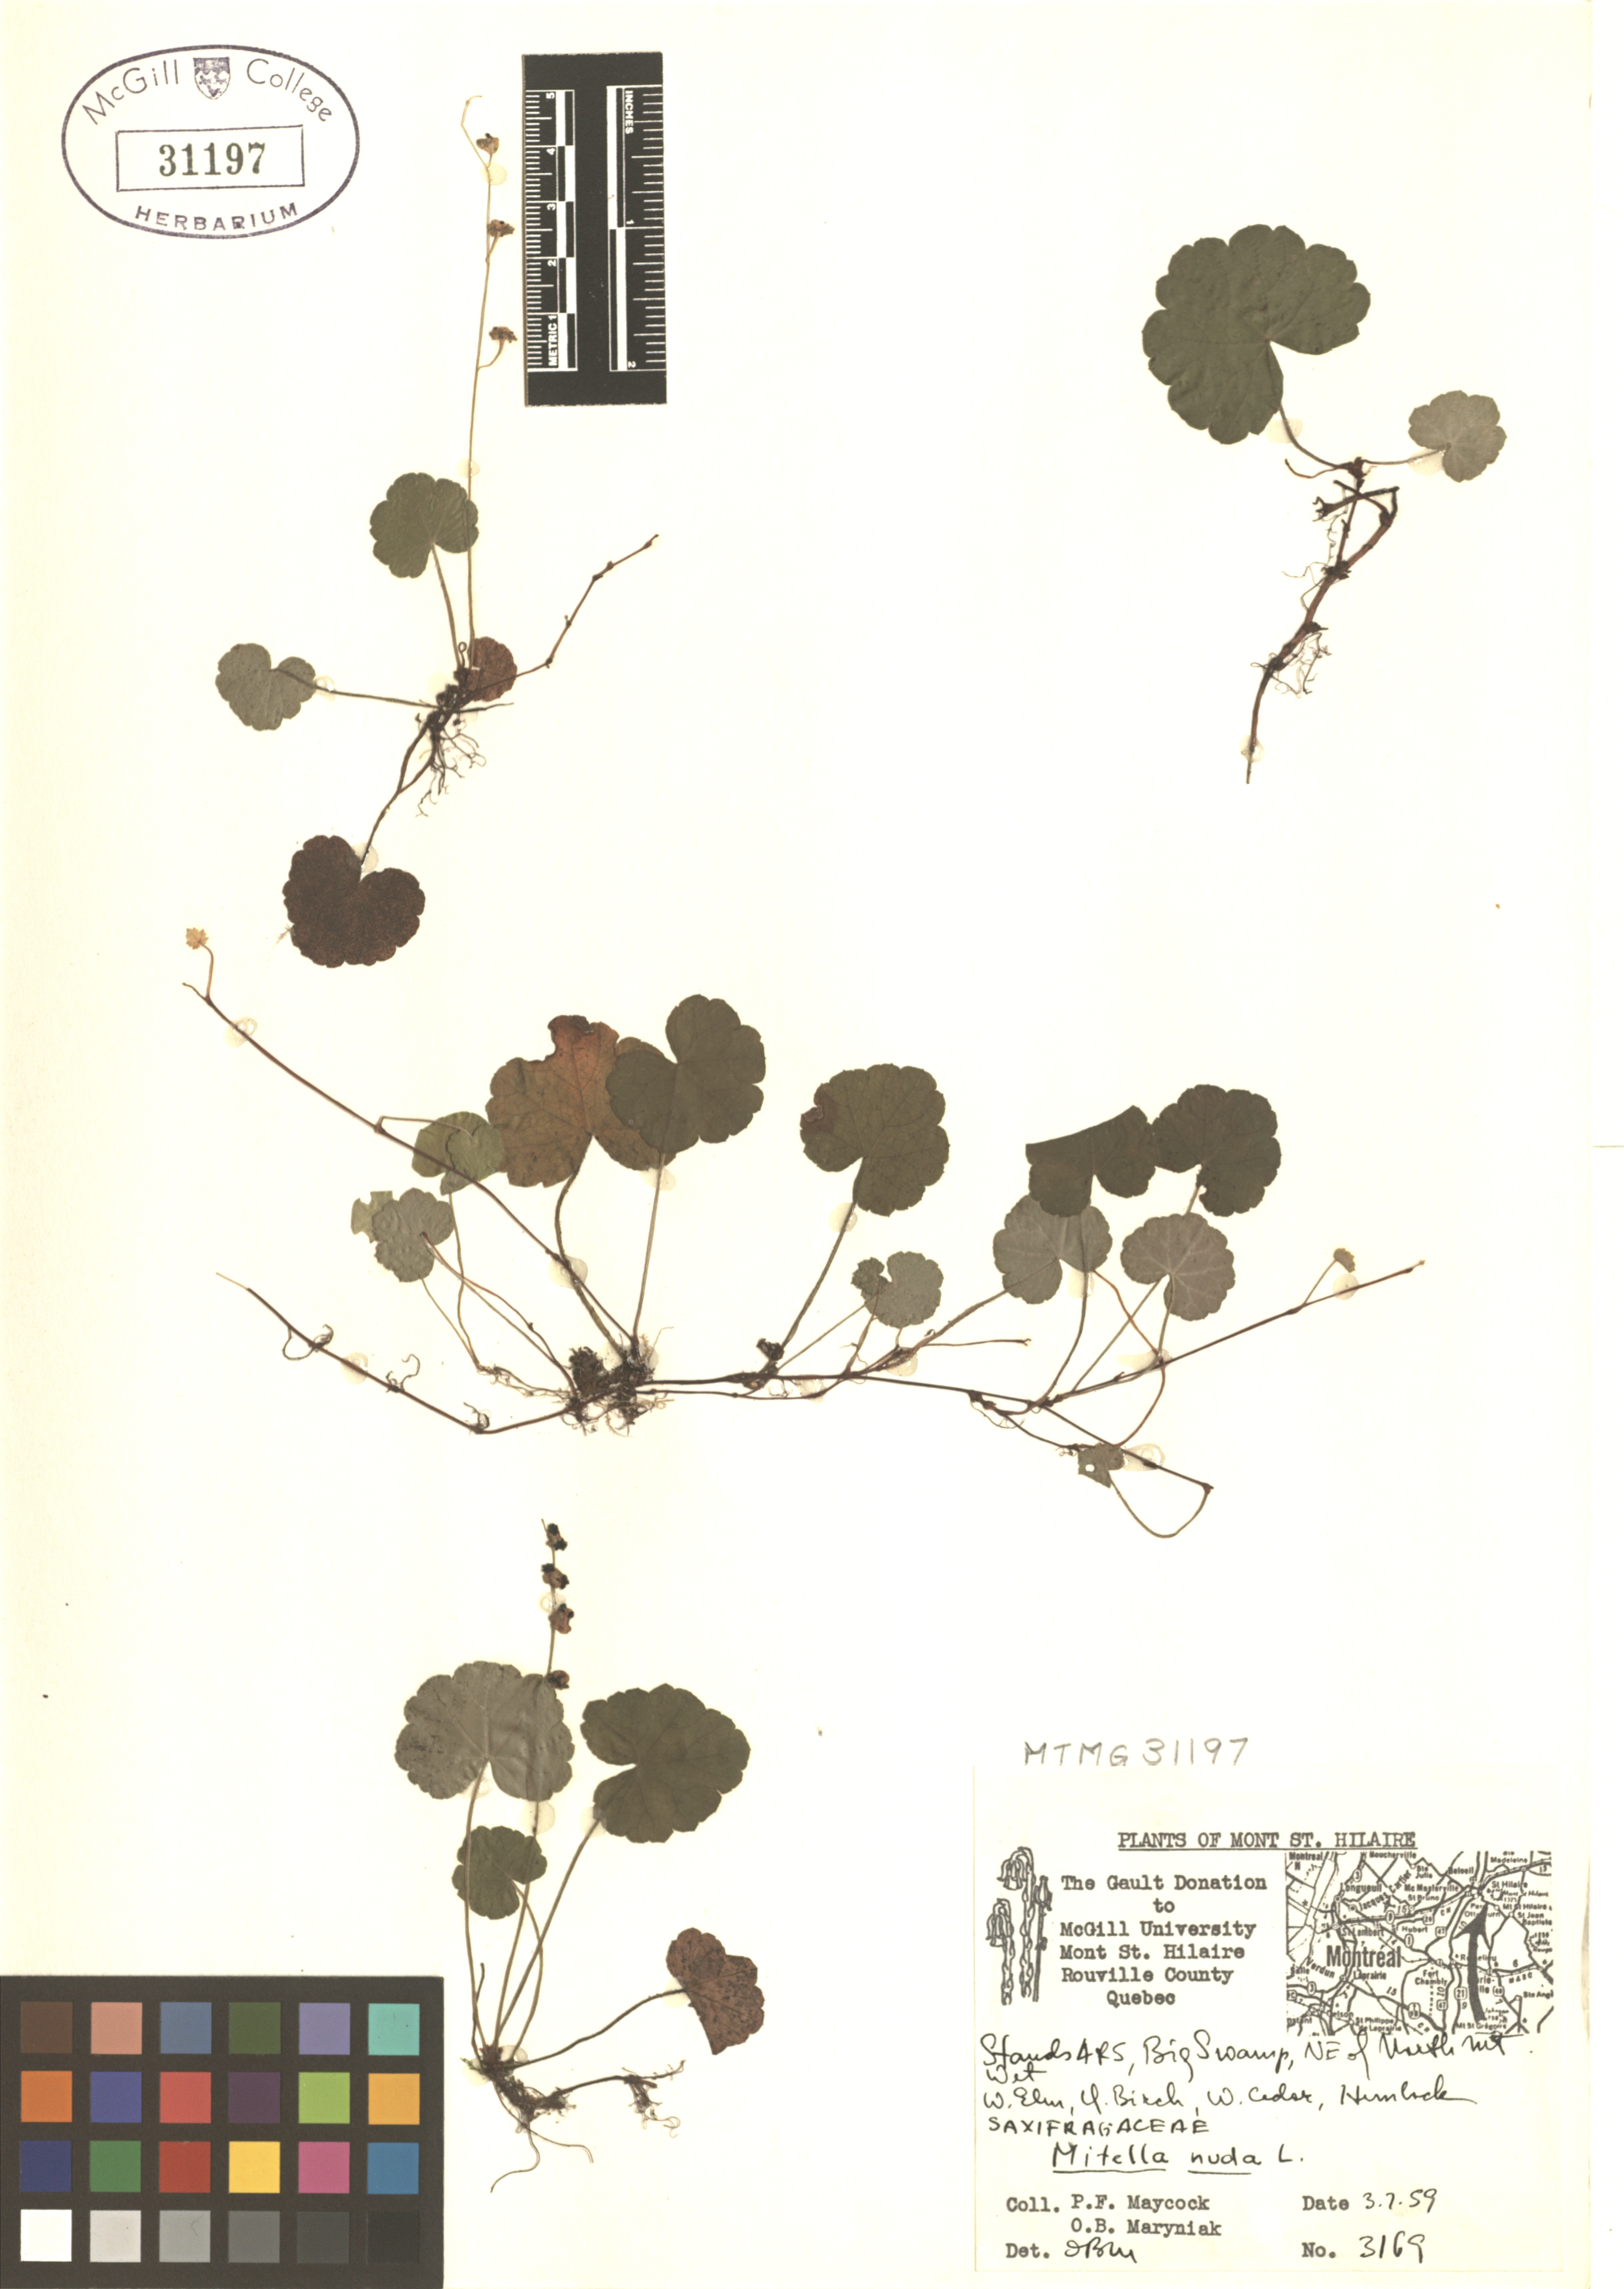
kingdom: Plantae
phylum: Tracheophyta
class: Magnoliopsida
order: Saxifragales
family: Saxifragaceae
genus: Mitella
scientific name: Mitella nuda
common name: Bare-stemmed bishop's-cap
